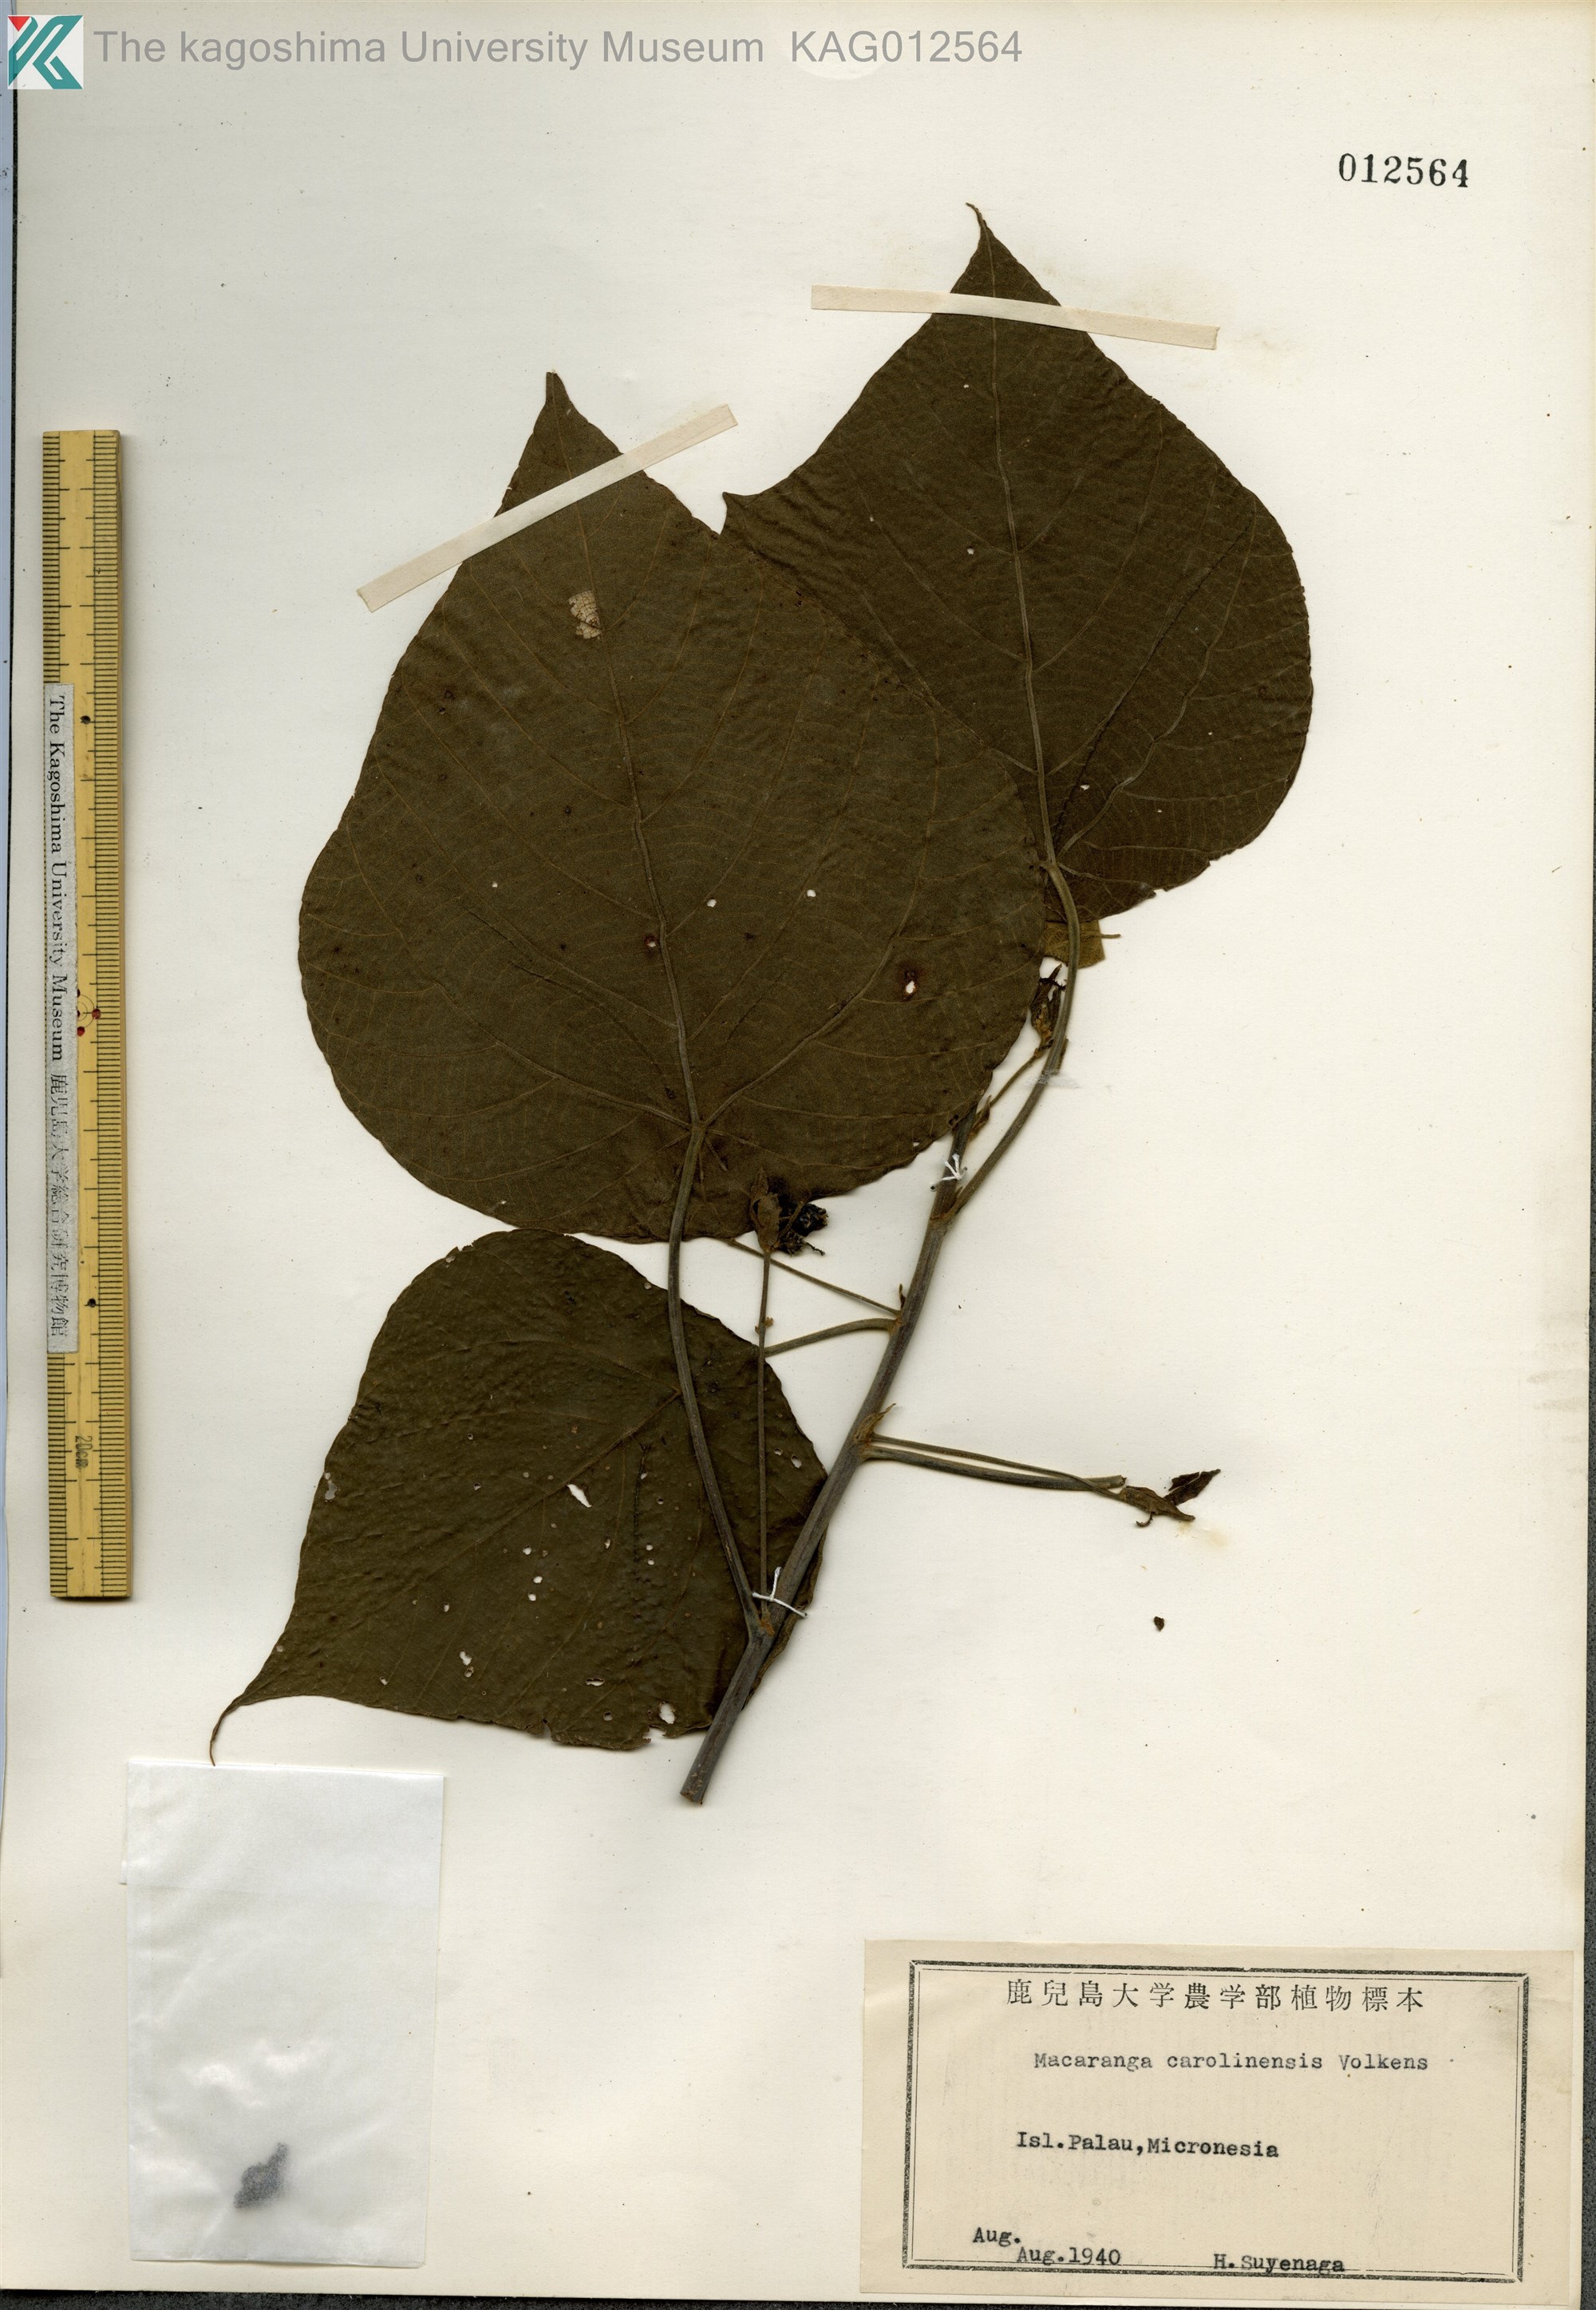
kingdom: Plantae
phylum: Tracheophyta
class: Magnoliopsida
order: Malpighiales
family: Euphorbiaceae
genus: Macaranga
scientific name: Macaranga carolinensis
